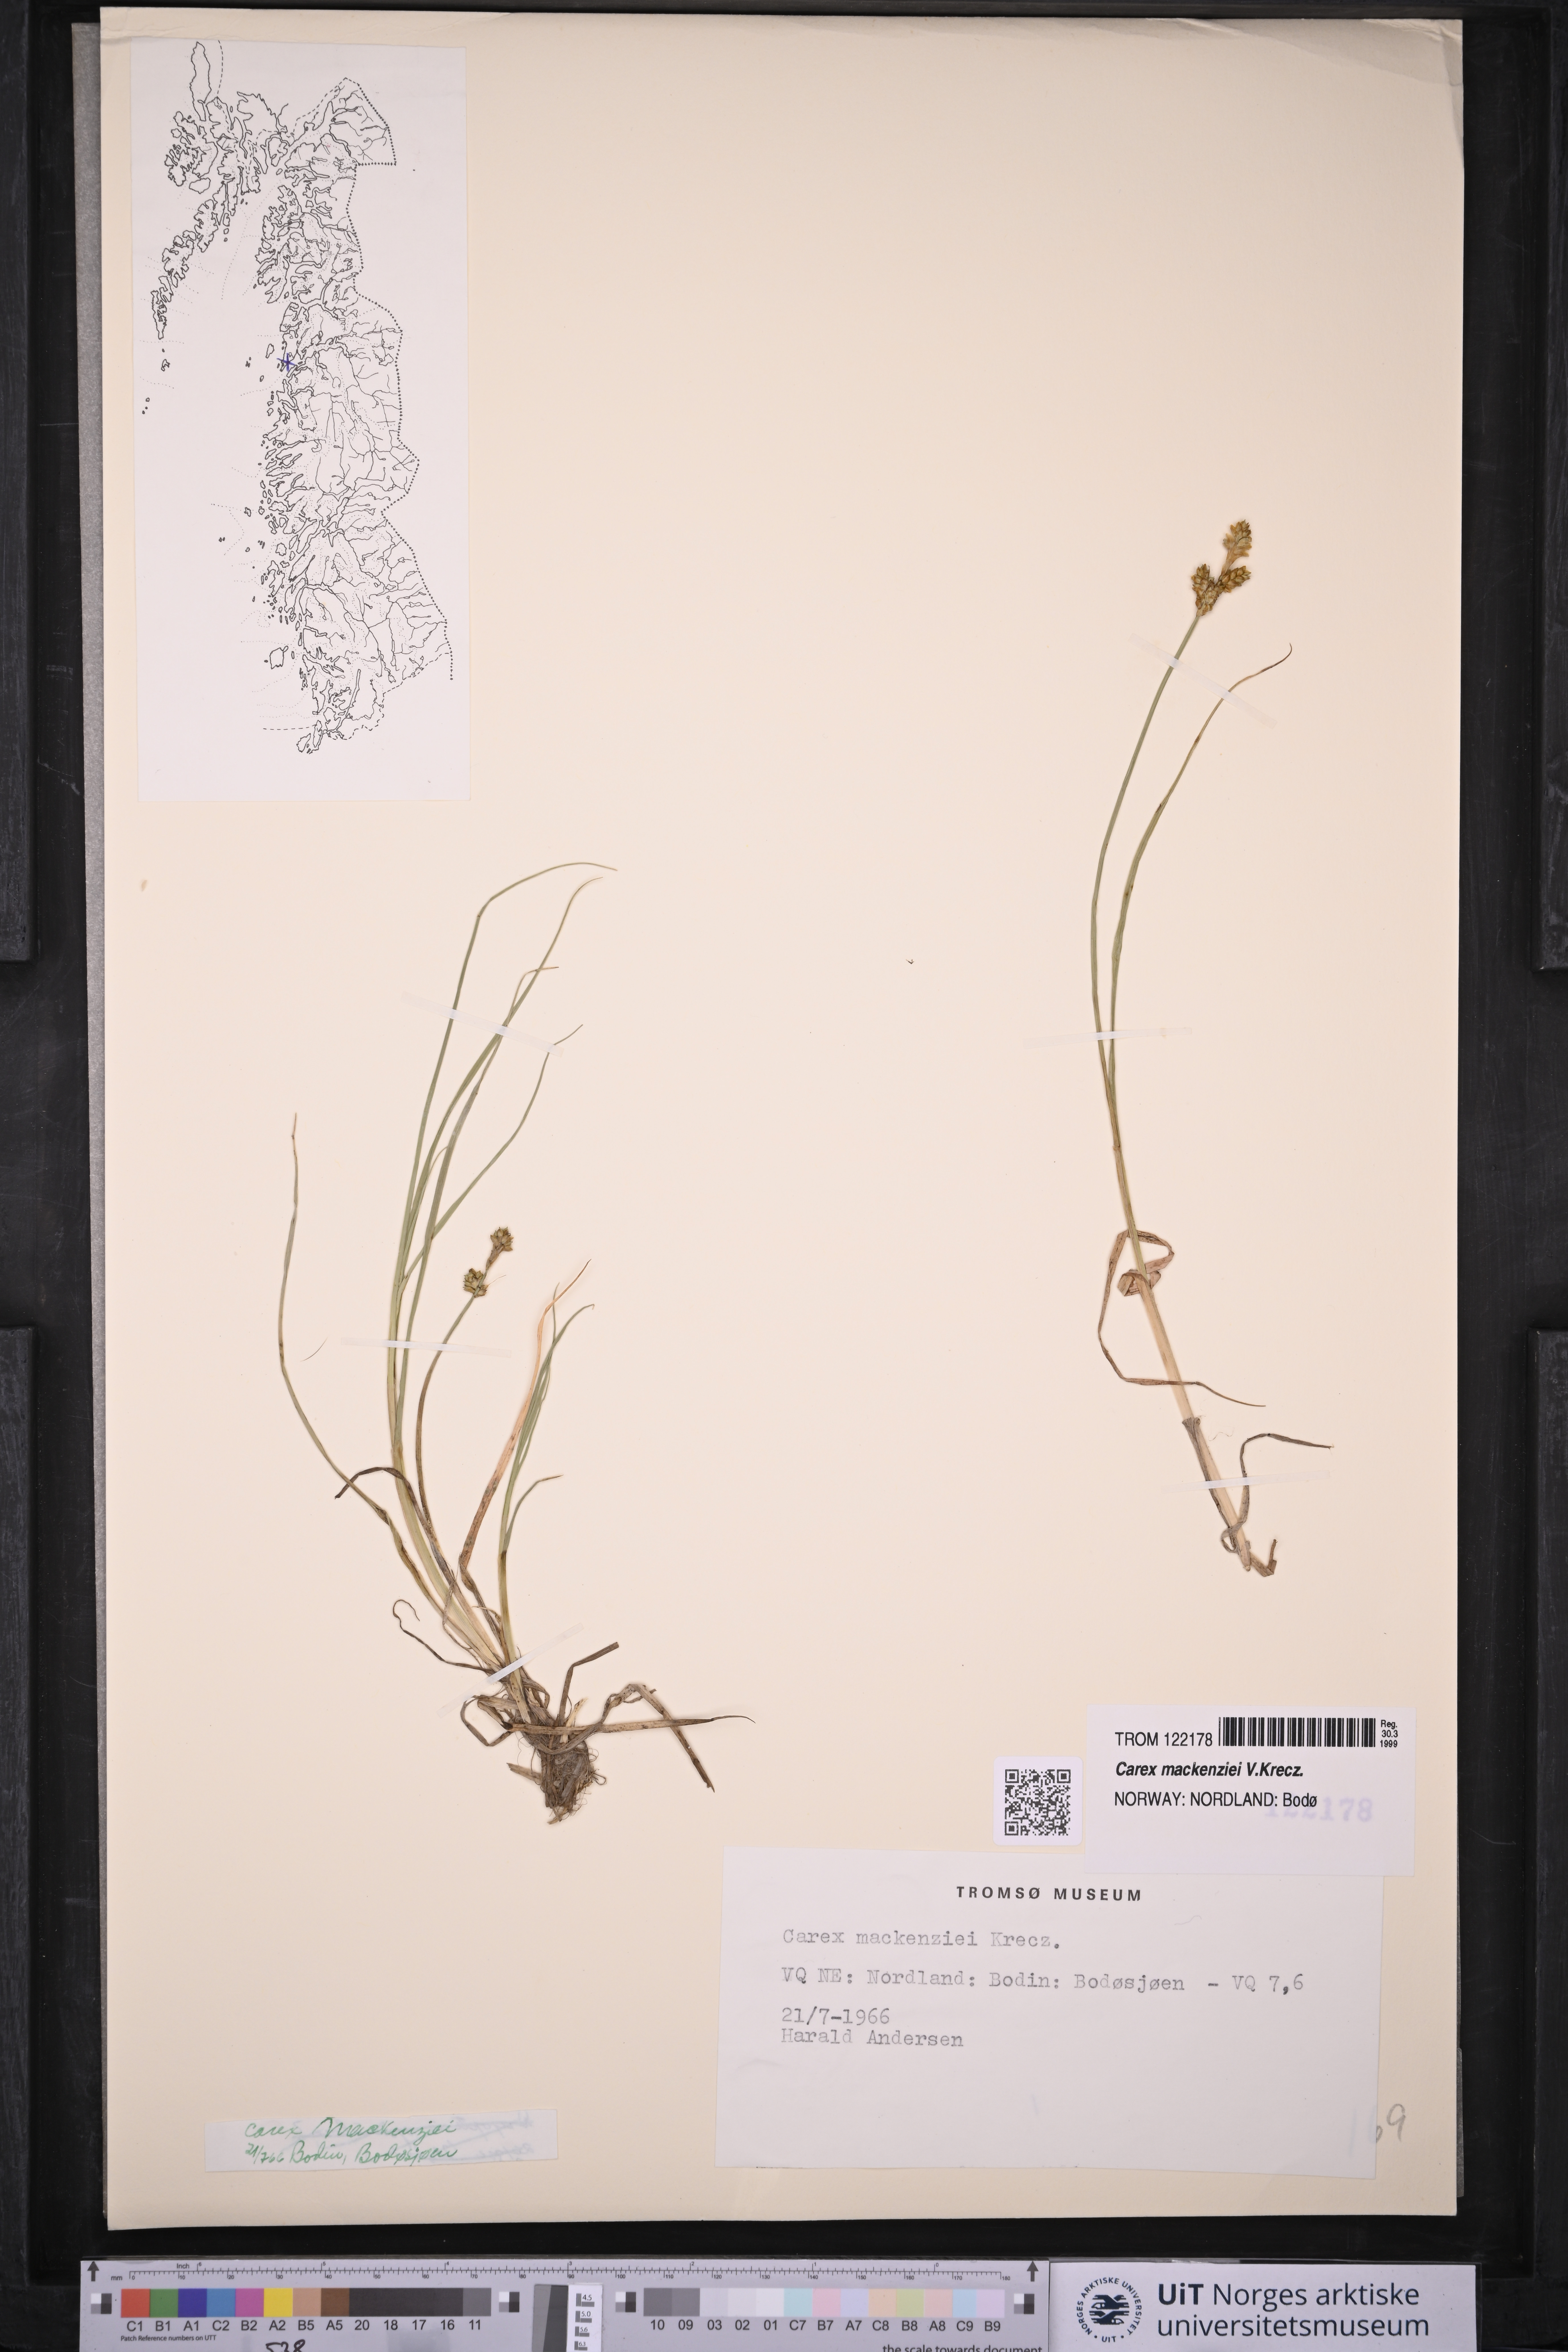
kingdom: Plantae
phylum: Tracheophyta
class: Liliopsida
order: Poales
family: Cyperaceae
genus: Carex
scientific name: Carex mackenziei
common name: Mackenzie's sedge
